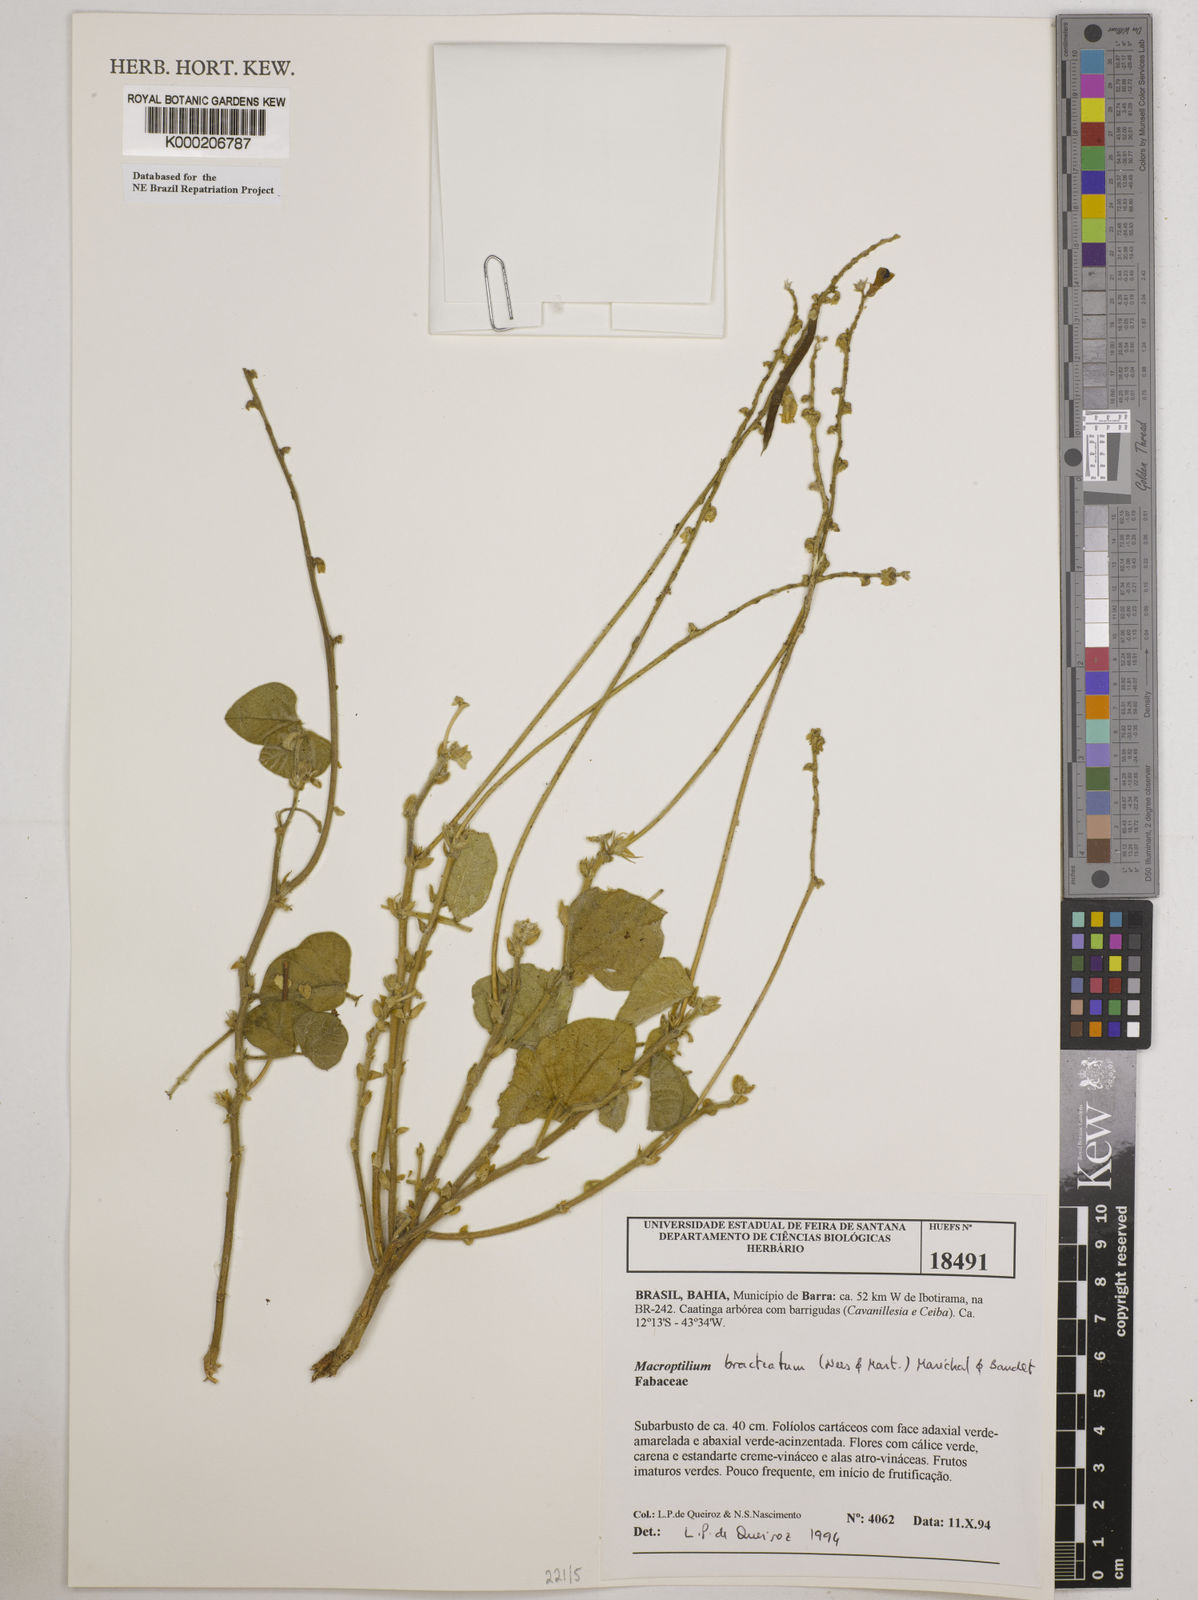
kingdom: Plantae
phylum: Tracheophyta
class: Magnoliopsida
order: Fabales
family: Fabaceae
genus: Macroptilium
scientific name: Macroptilium
